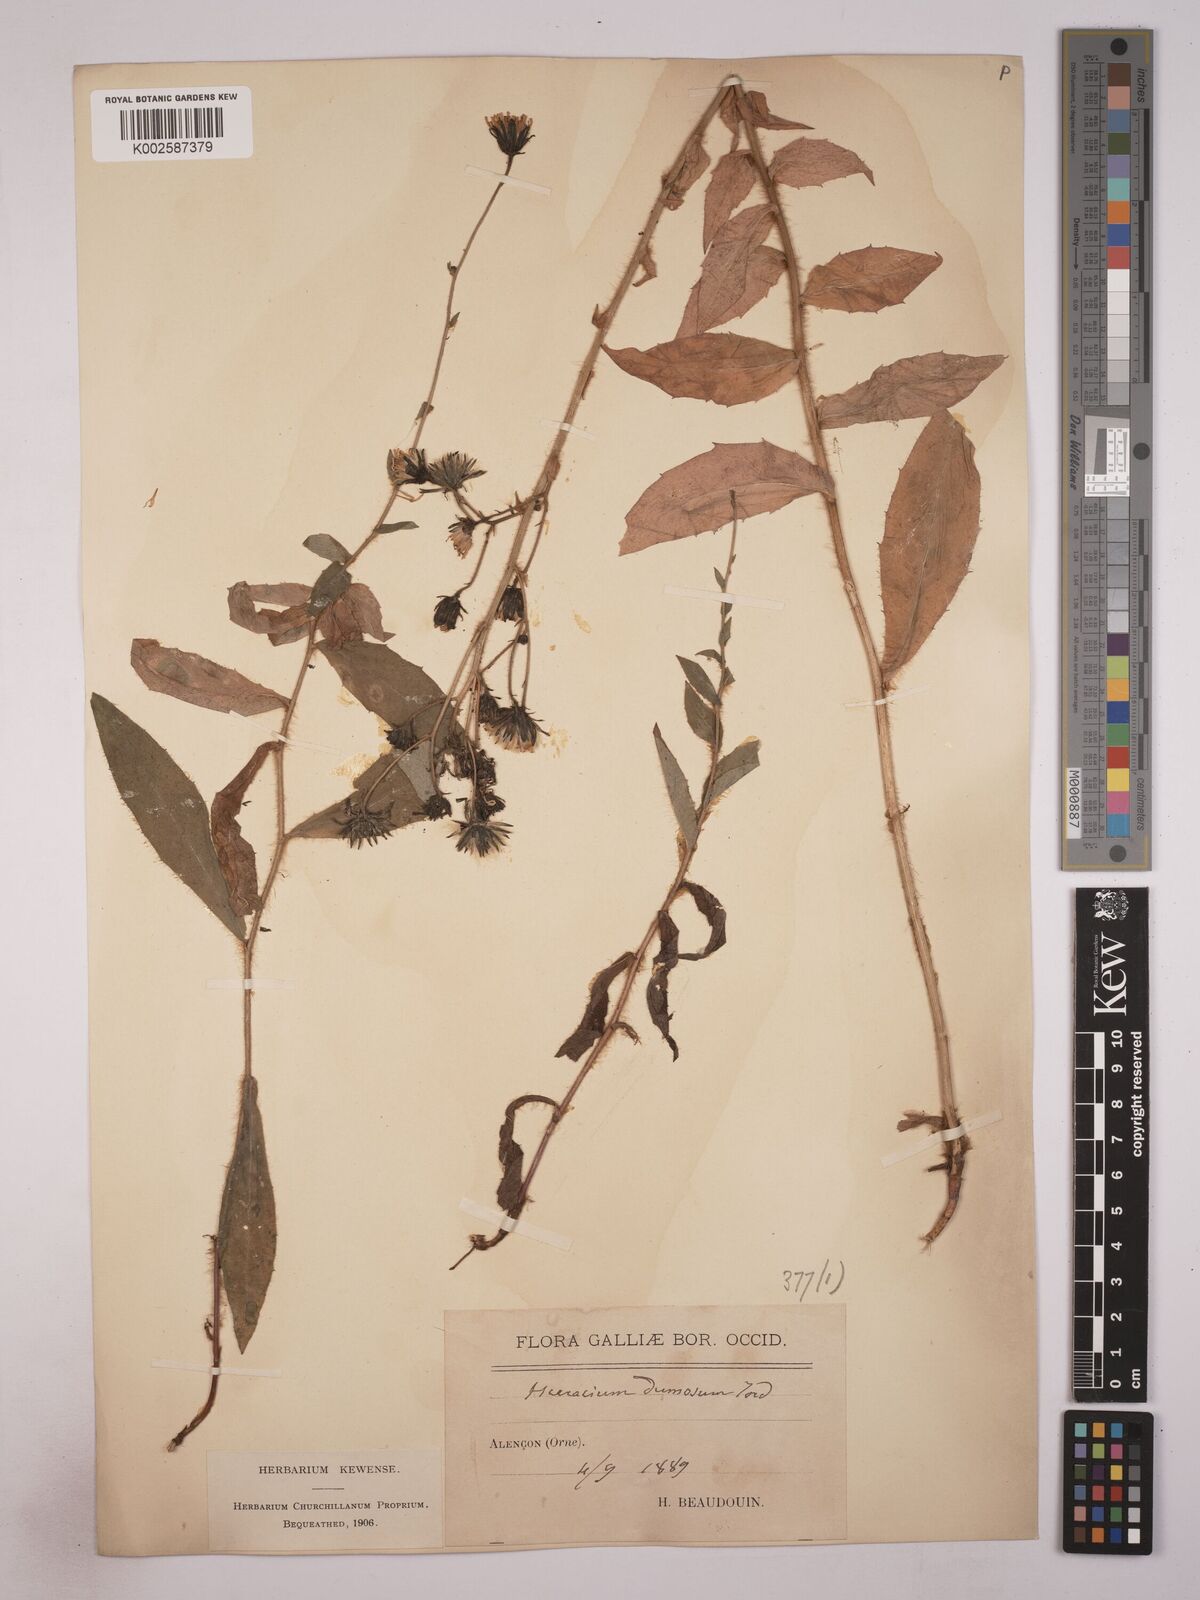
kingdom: Plantae
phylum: Tracheophyta
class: Magnoliopsida
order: Asterales
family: Asteraceae
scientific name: Asteraceae
